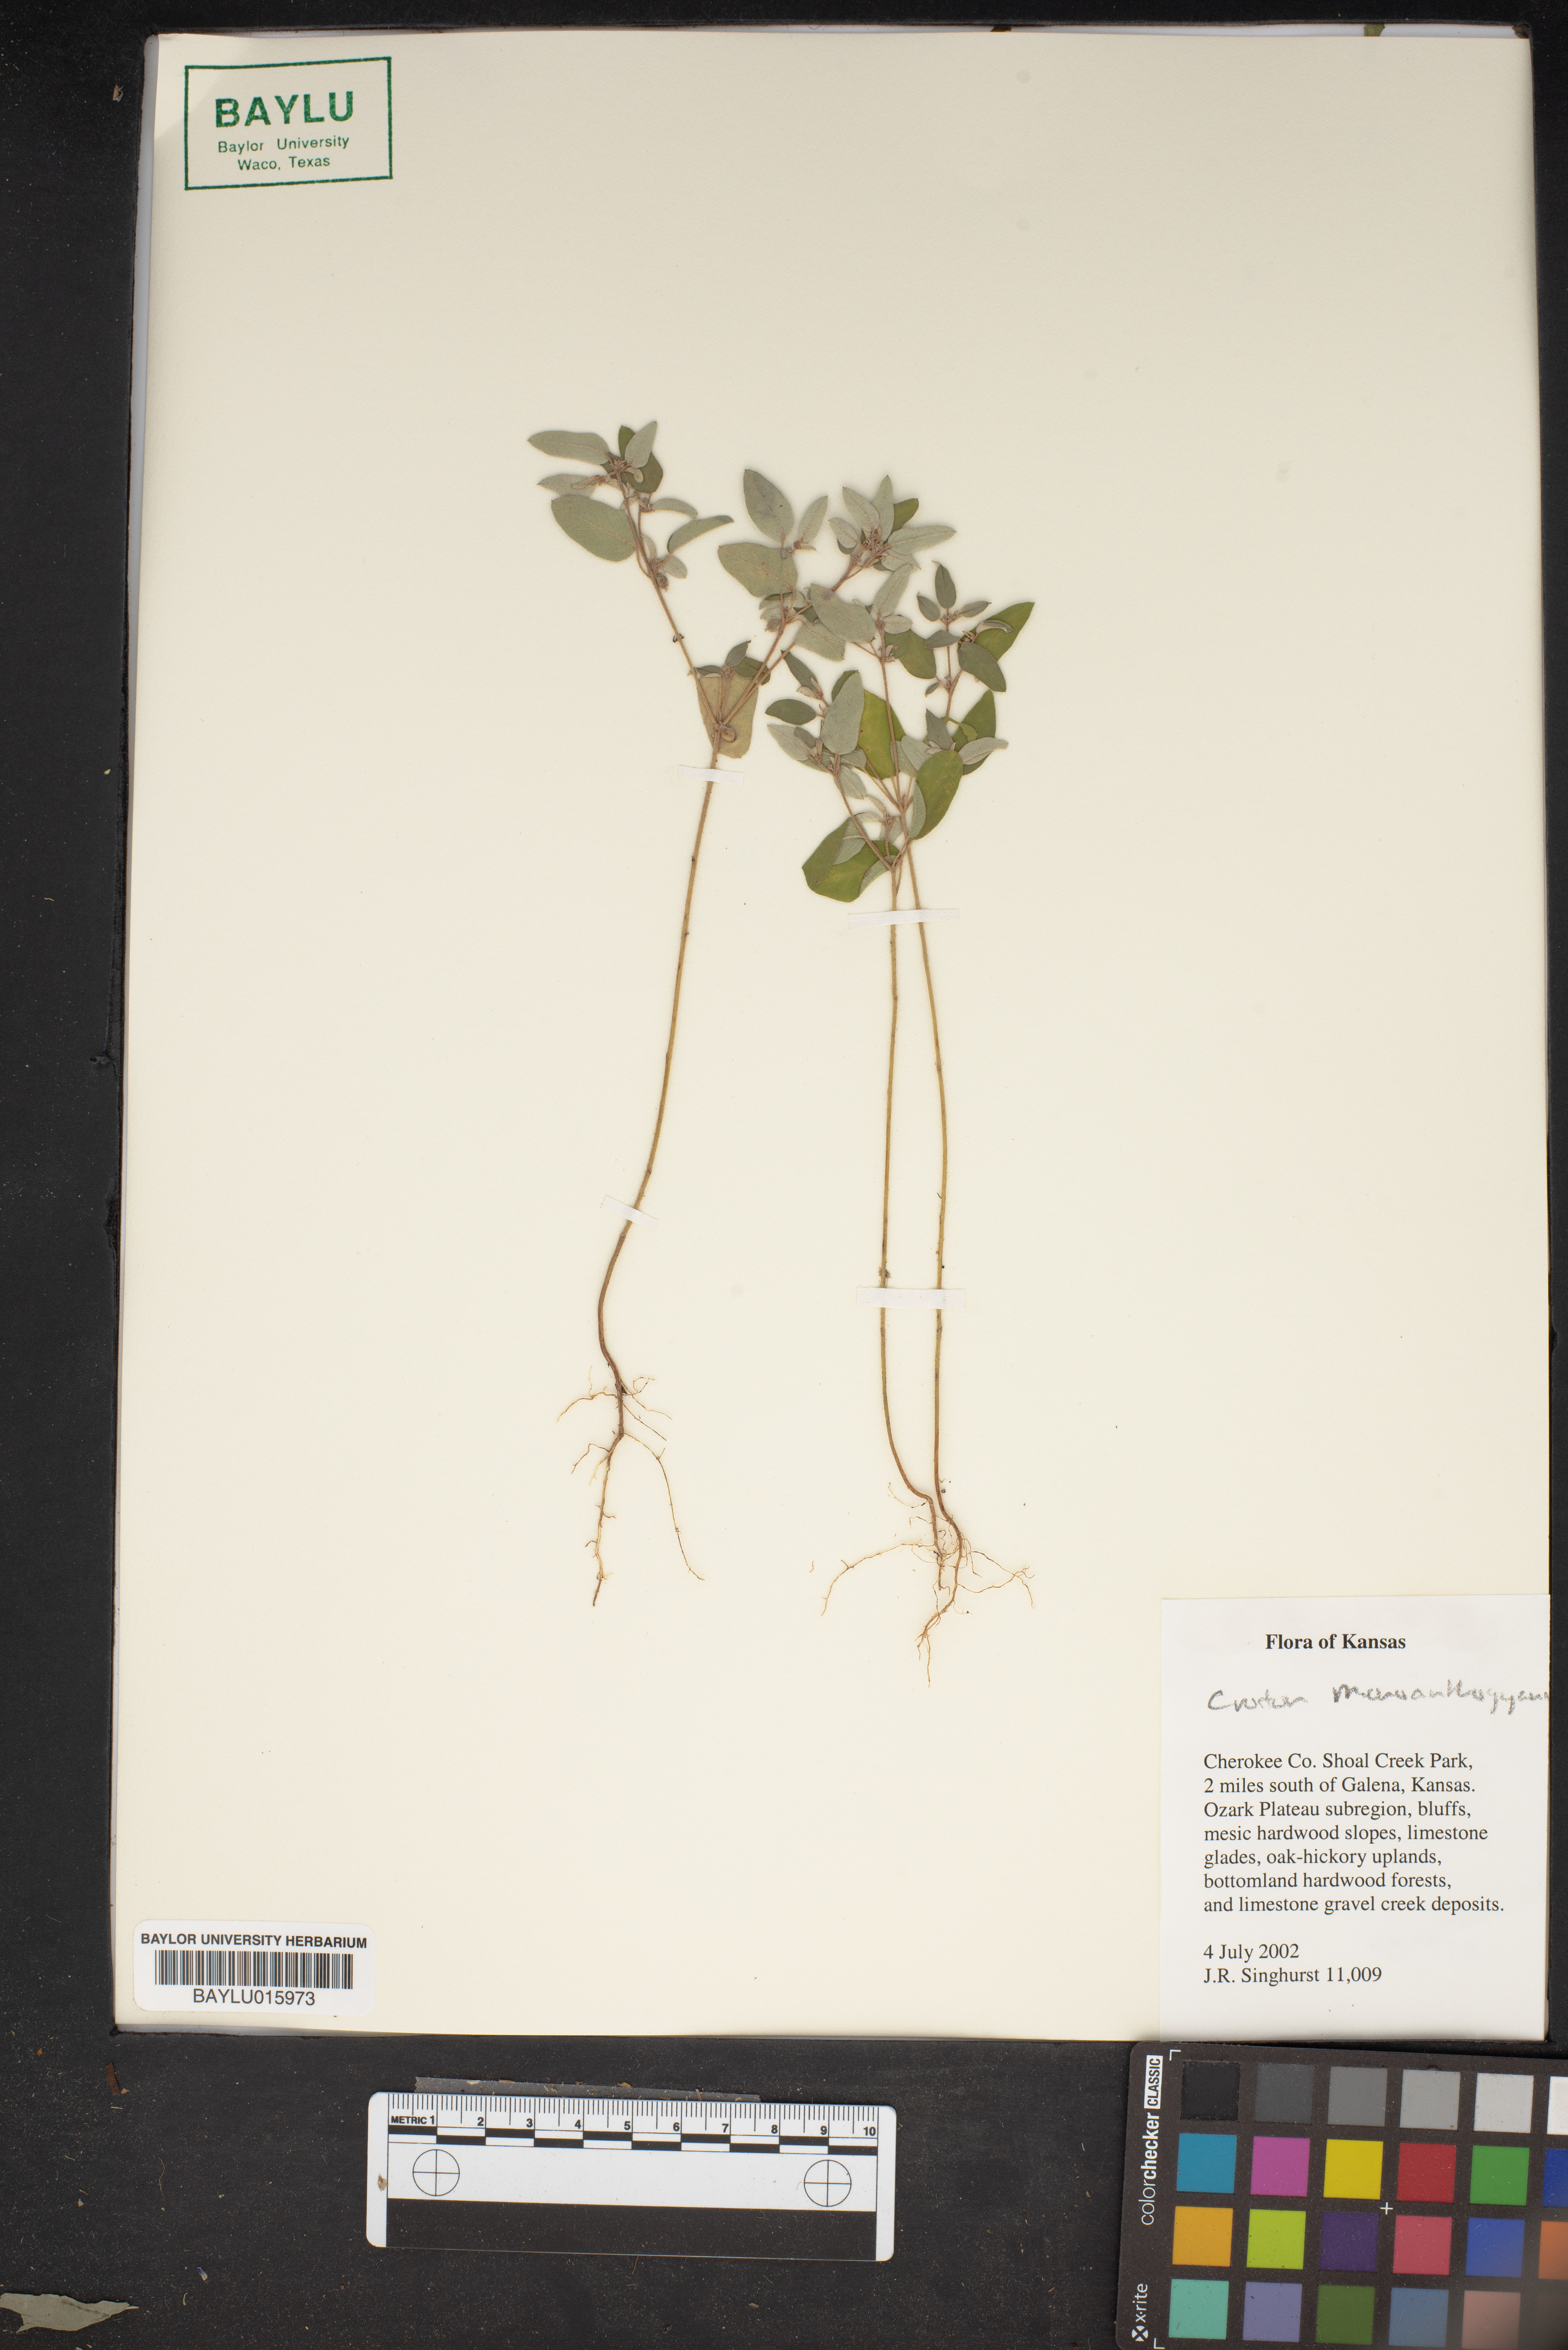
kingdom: Plantae
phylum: Tracheophyta
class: Magnoliopsida
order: Malpighiales
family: Euphorbiaceae
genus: Croton
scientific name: Croton monanthogynus
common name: One-seed croton
